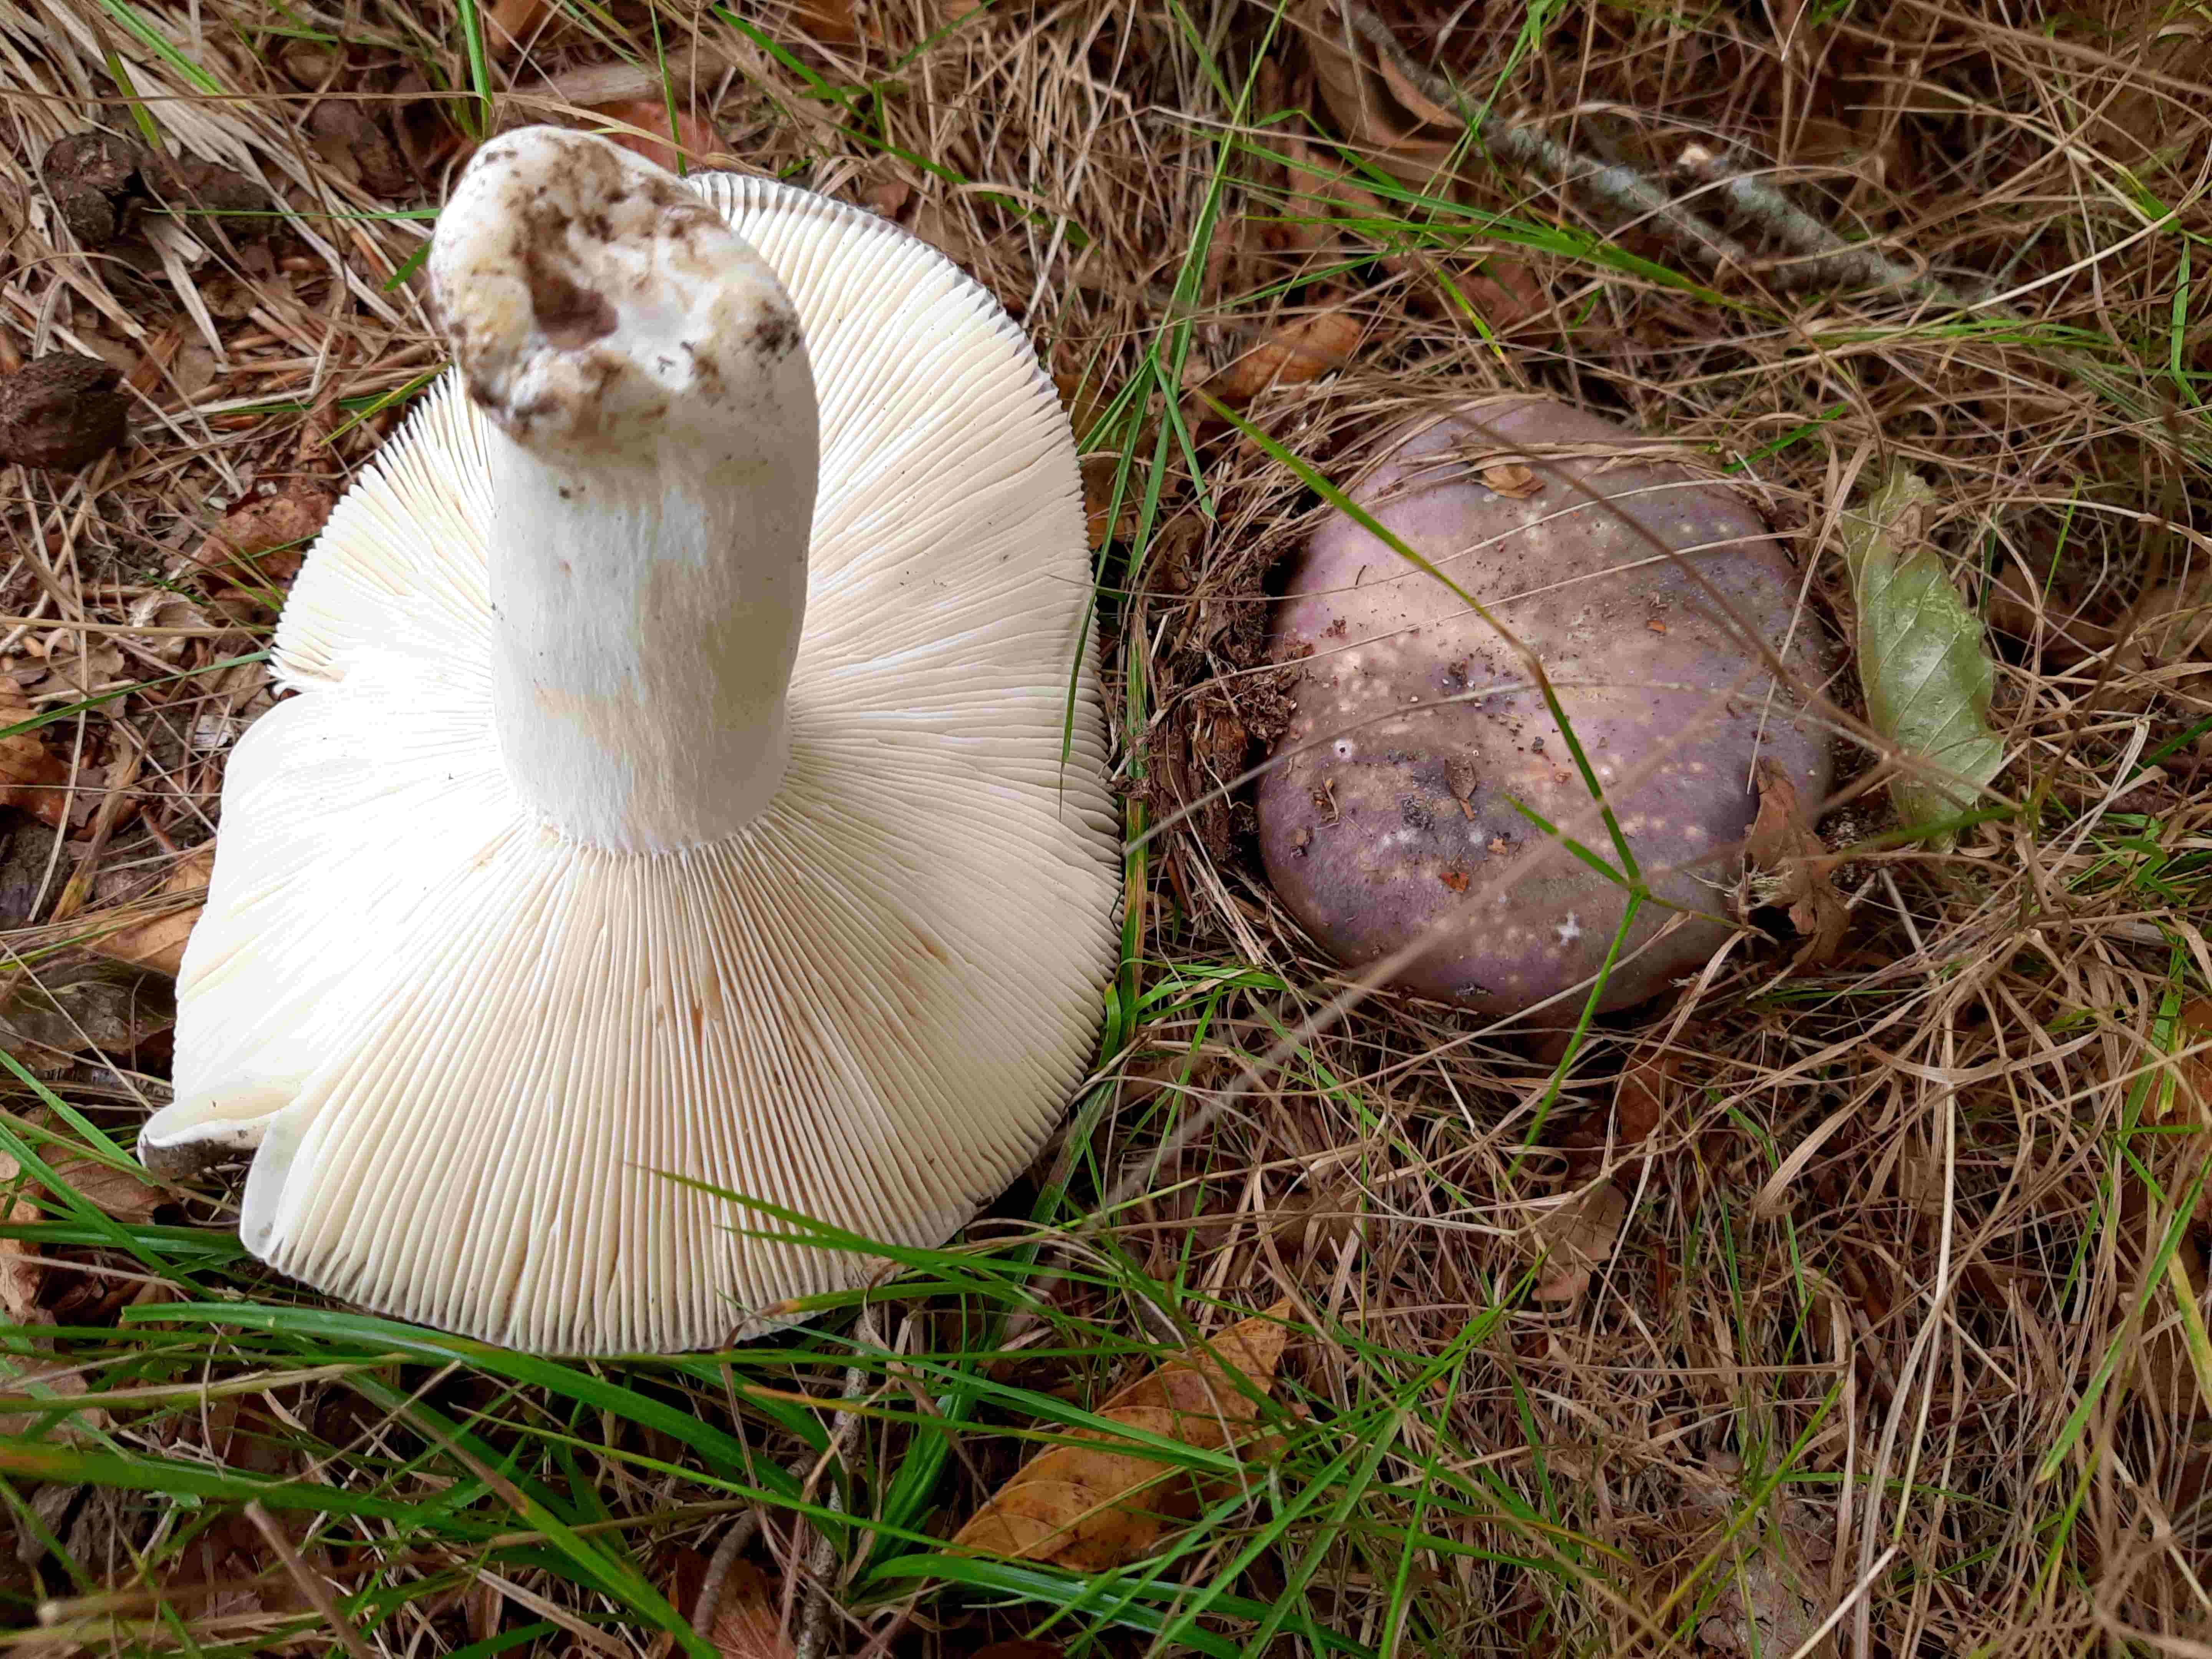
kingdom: Fungi
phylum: Basidiomycota
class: Agaricomycetes
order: Russulales
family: Russulaceae
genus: Russula
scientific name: Russula cyanoxantha
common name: broget skørhat
